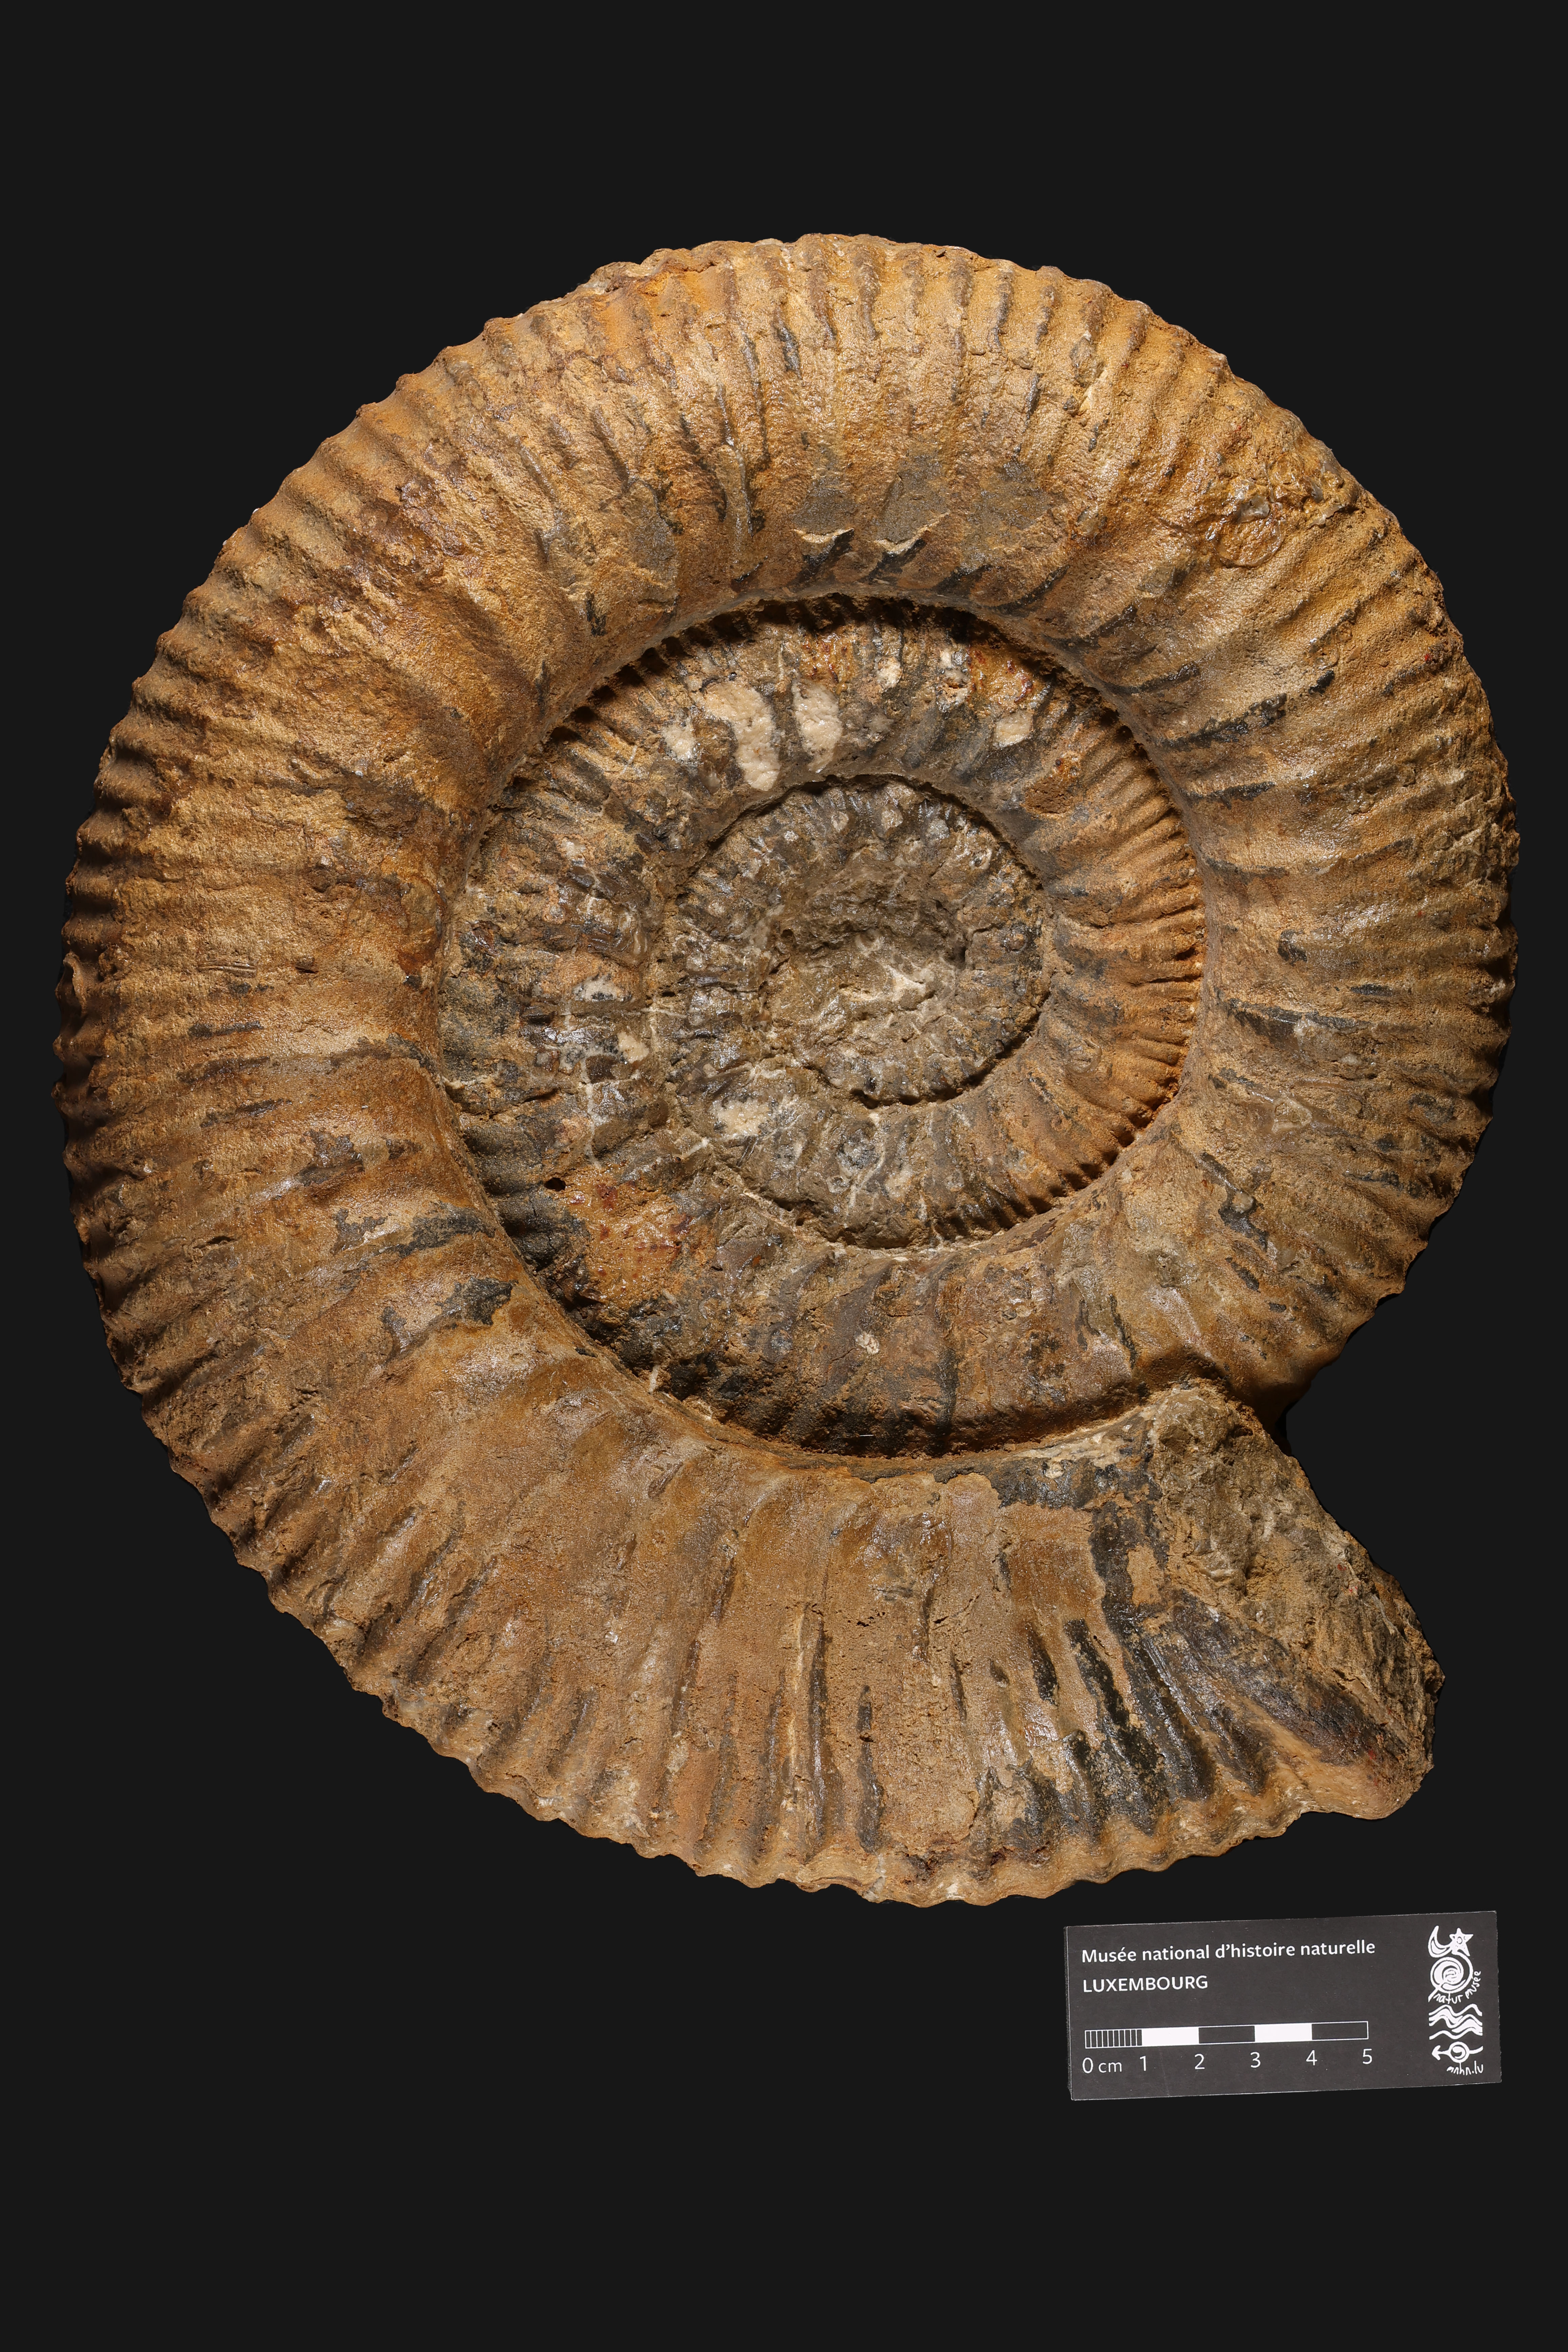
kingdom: Animalia
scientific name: Animalia
